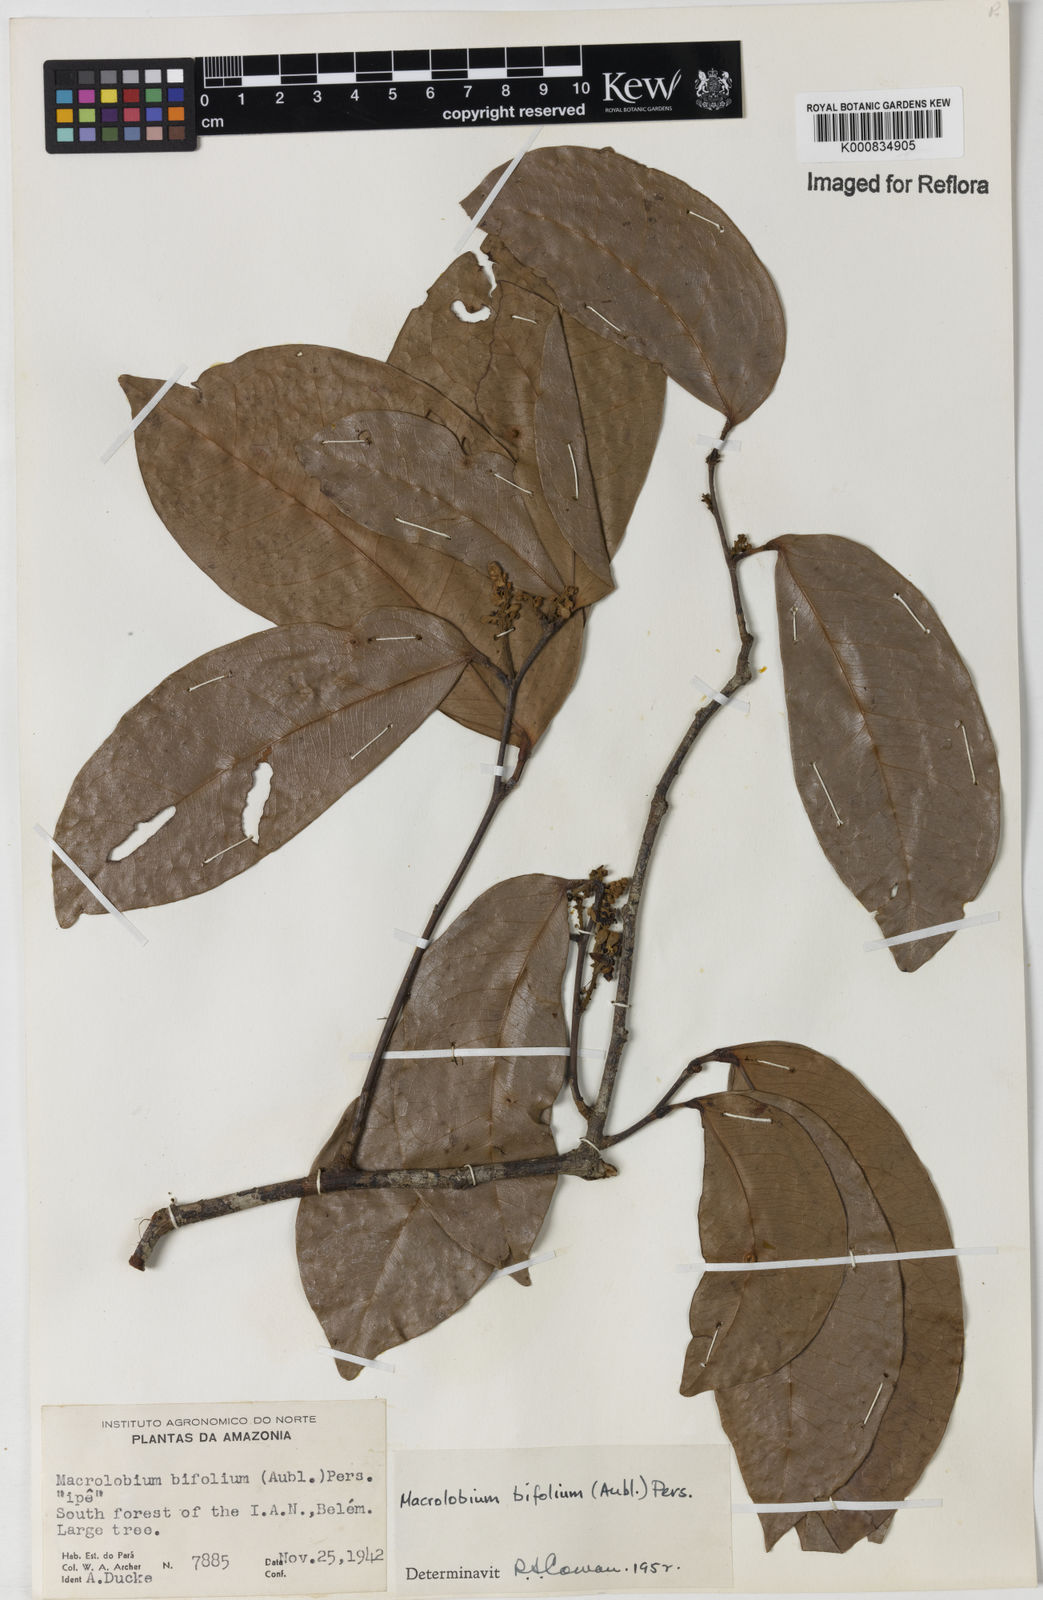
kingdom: Plantae
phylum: Tracheophyta
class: Magnoliopsida
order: Fabales
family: Fabaceae
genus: Macrolobium
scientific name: Macrolobium bifolium
